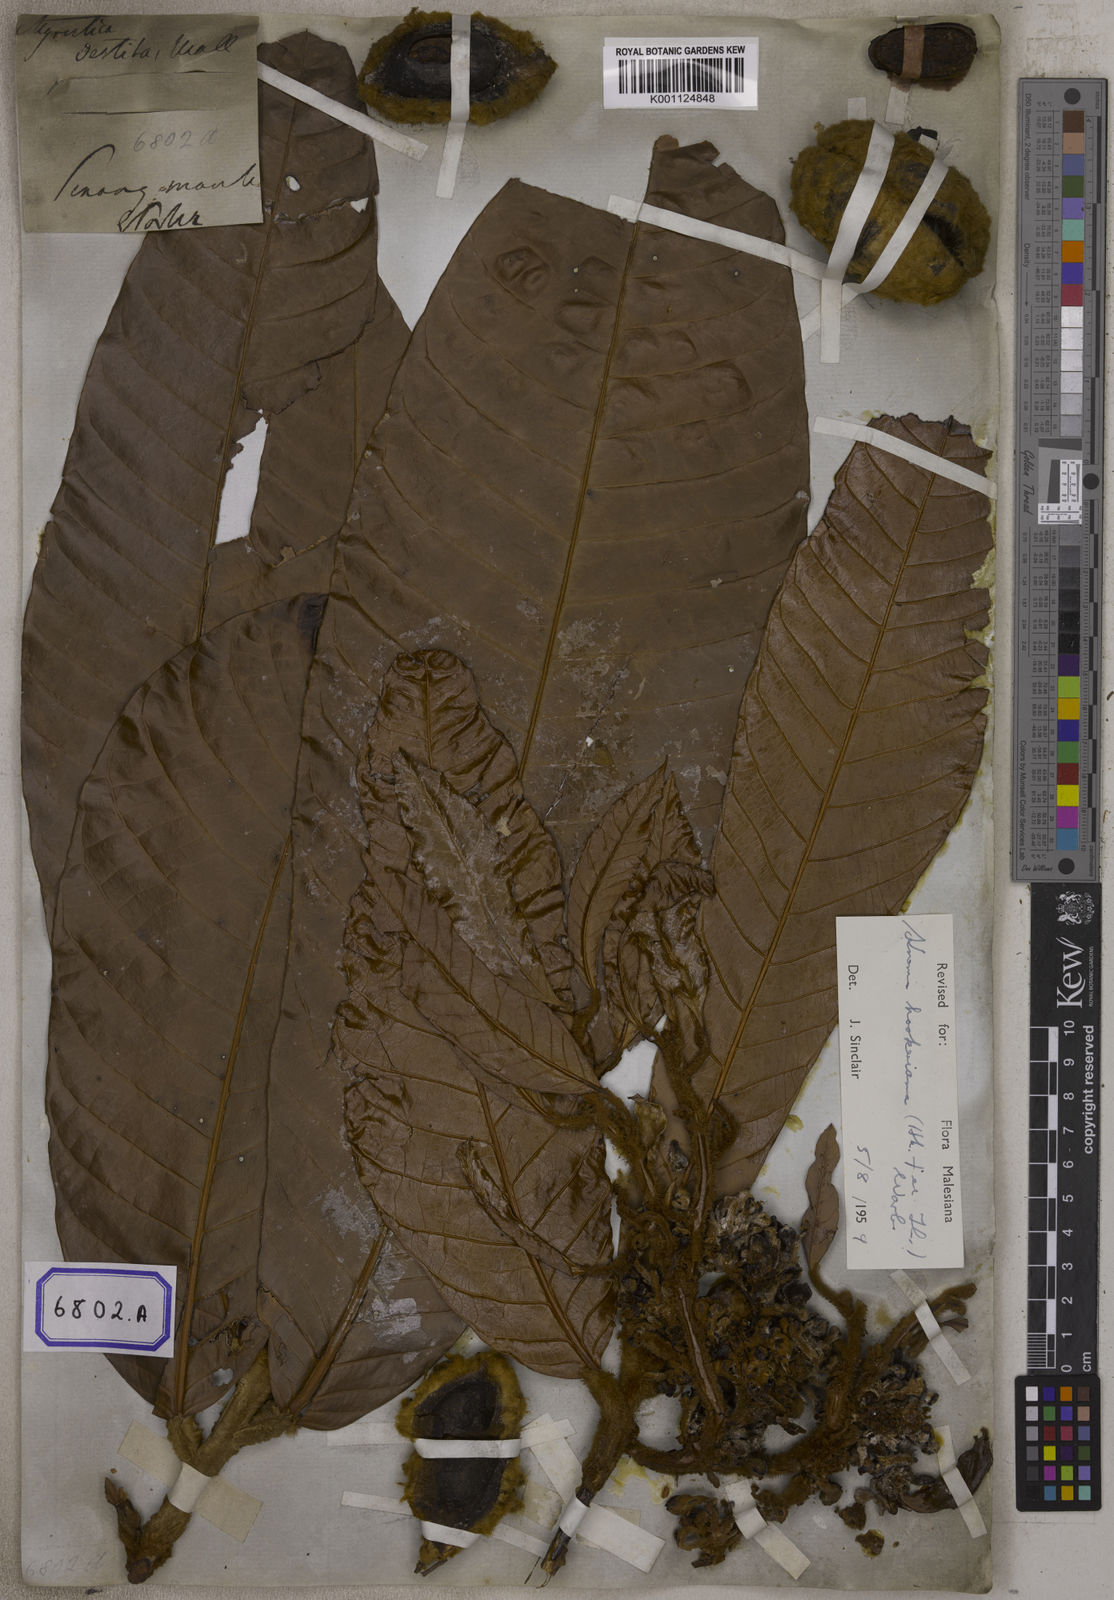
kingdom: Plantae
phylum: Tracheophyta
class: Magnoliopsida
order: Magnoliales
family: Myristicaceae
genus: Myristica
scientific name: Myristica
